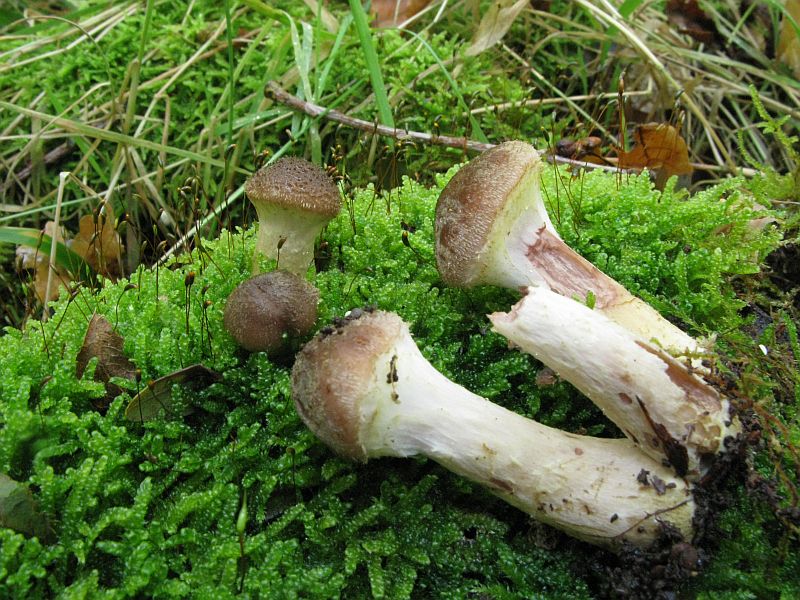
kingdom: Fungi
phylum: Basidiomycota
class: Agaricomycetes
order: Agaricales
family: Physalacriaceae
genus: Armillaria
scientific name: Armillaria lutea
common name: køllestokket honningsvamp
